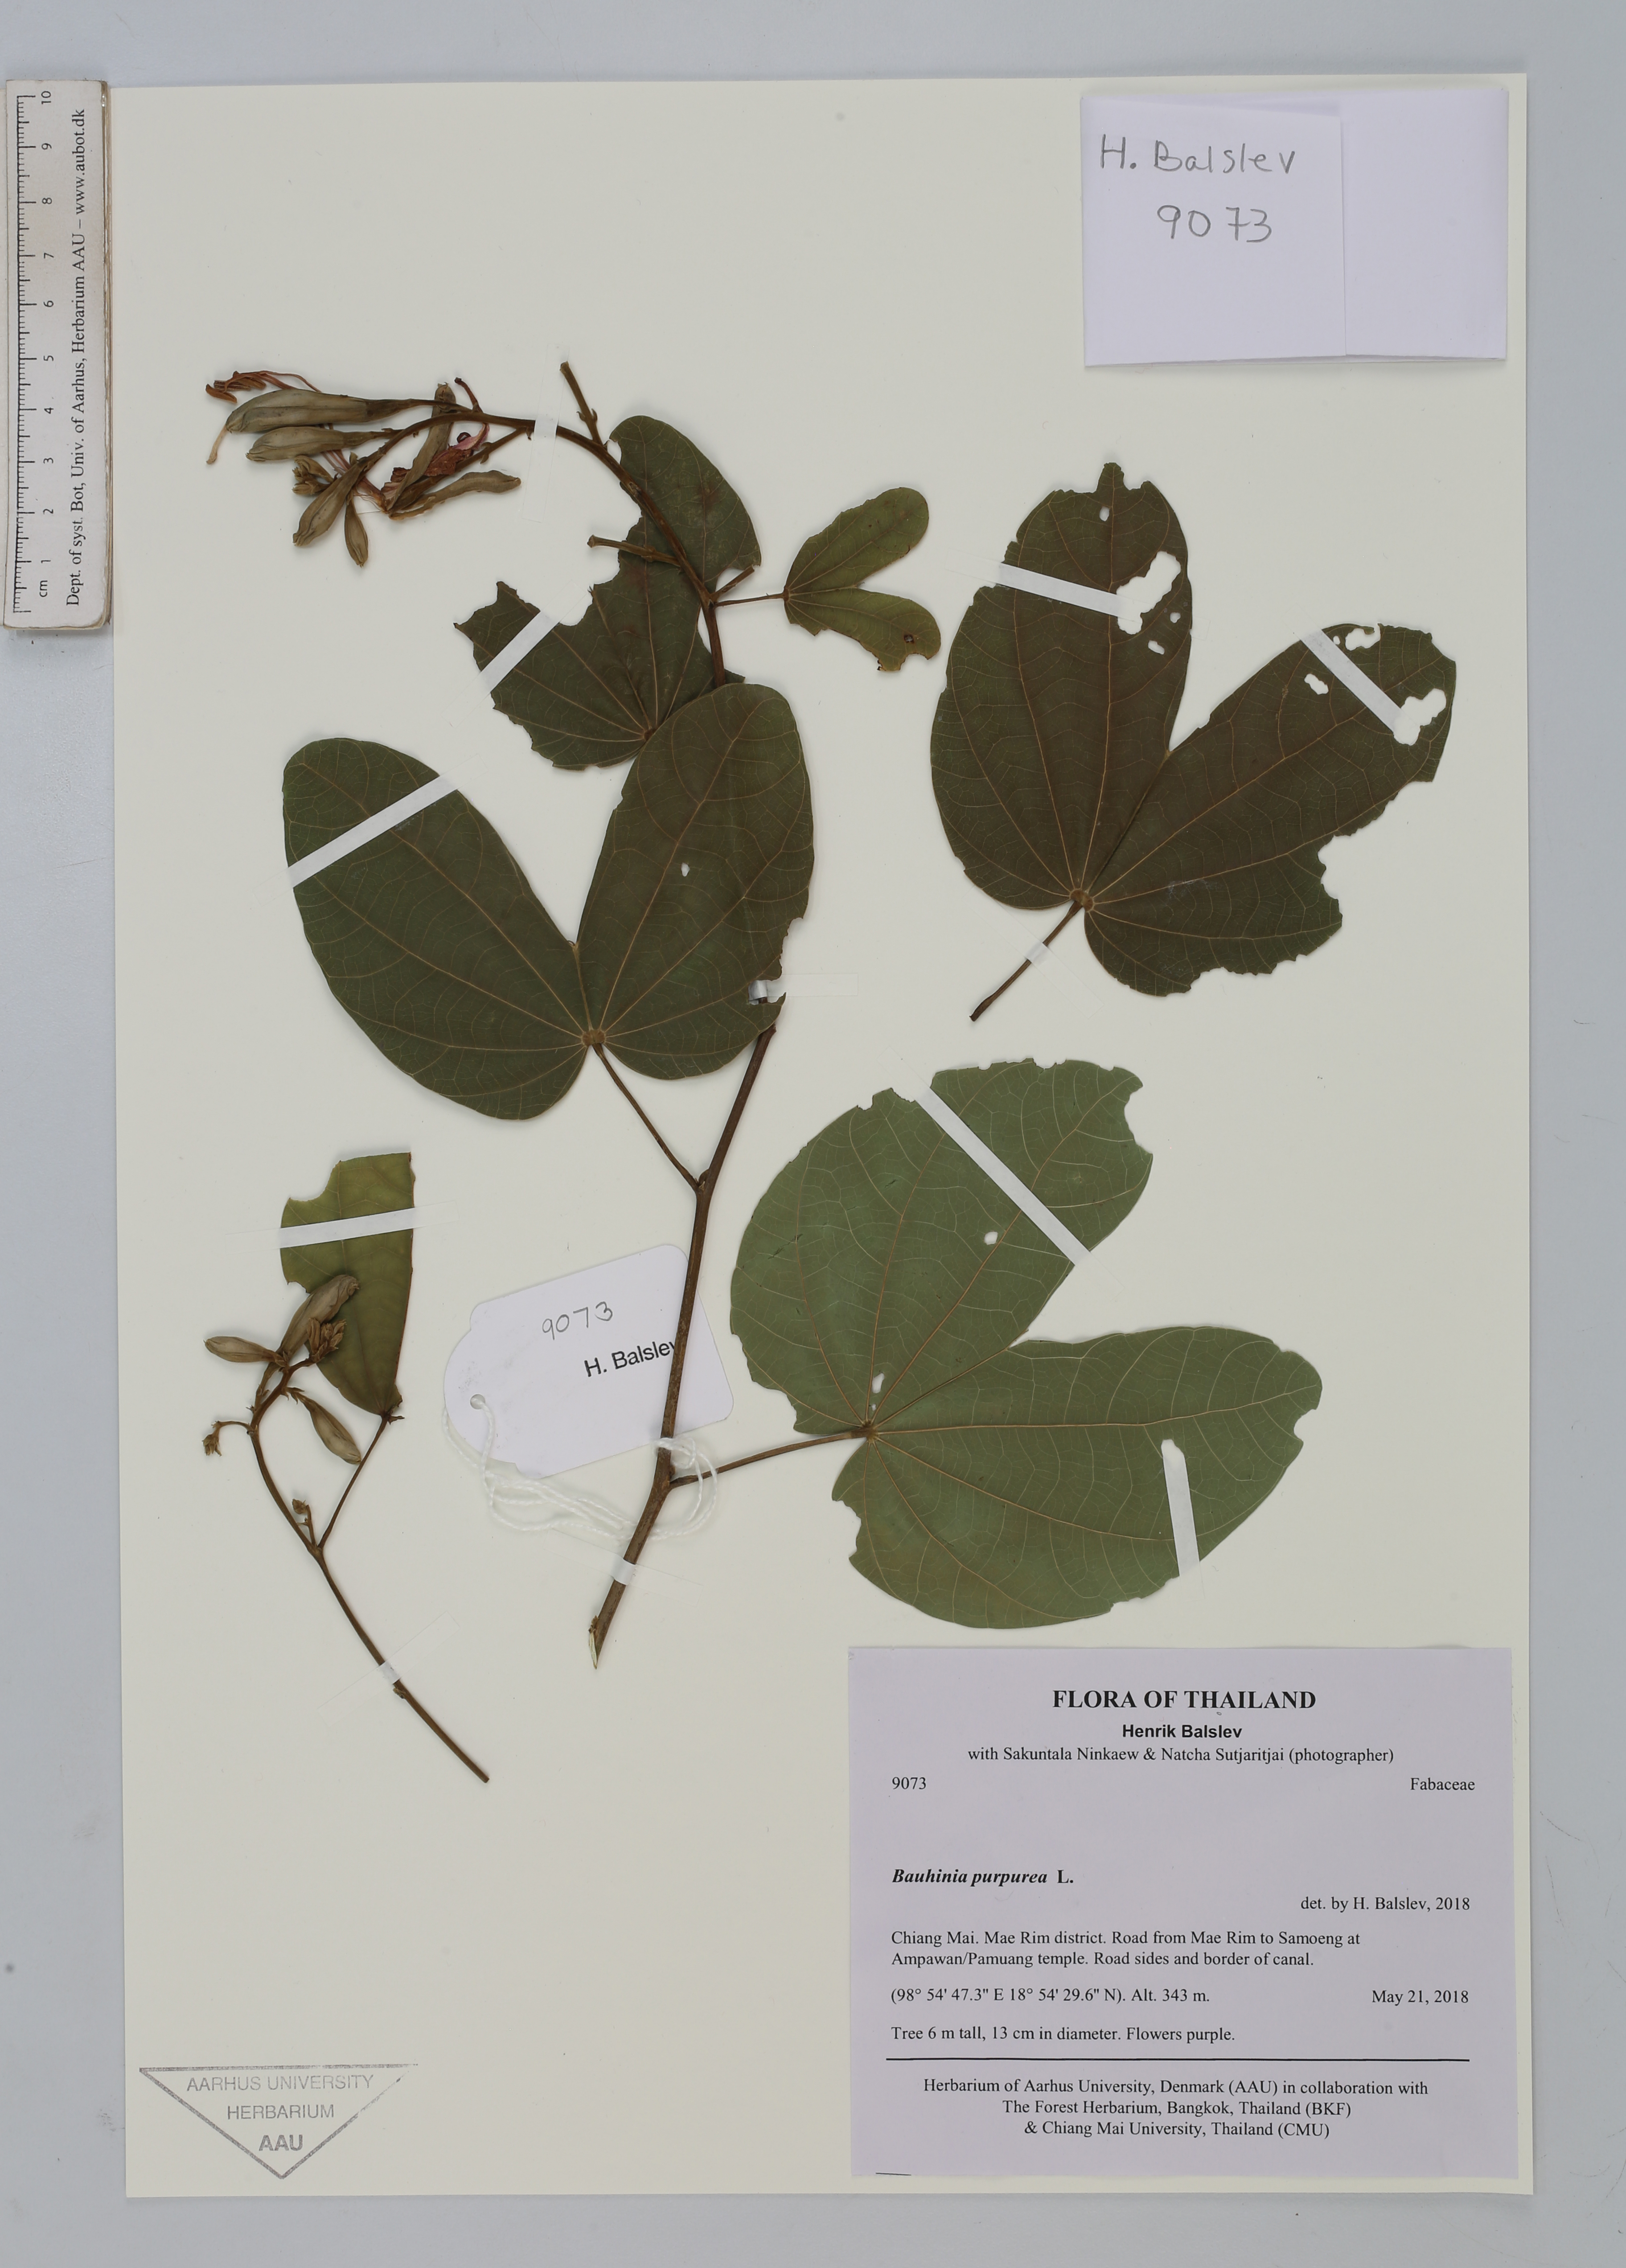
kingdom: Plantae
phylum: Tracheophyta
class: Magnoliopsida
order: Fabales
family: Fabaceae
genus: Bauhinia
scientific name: Bauhinia purpurea
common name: Butterfly-tree
